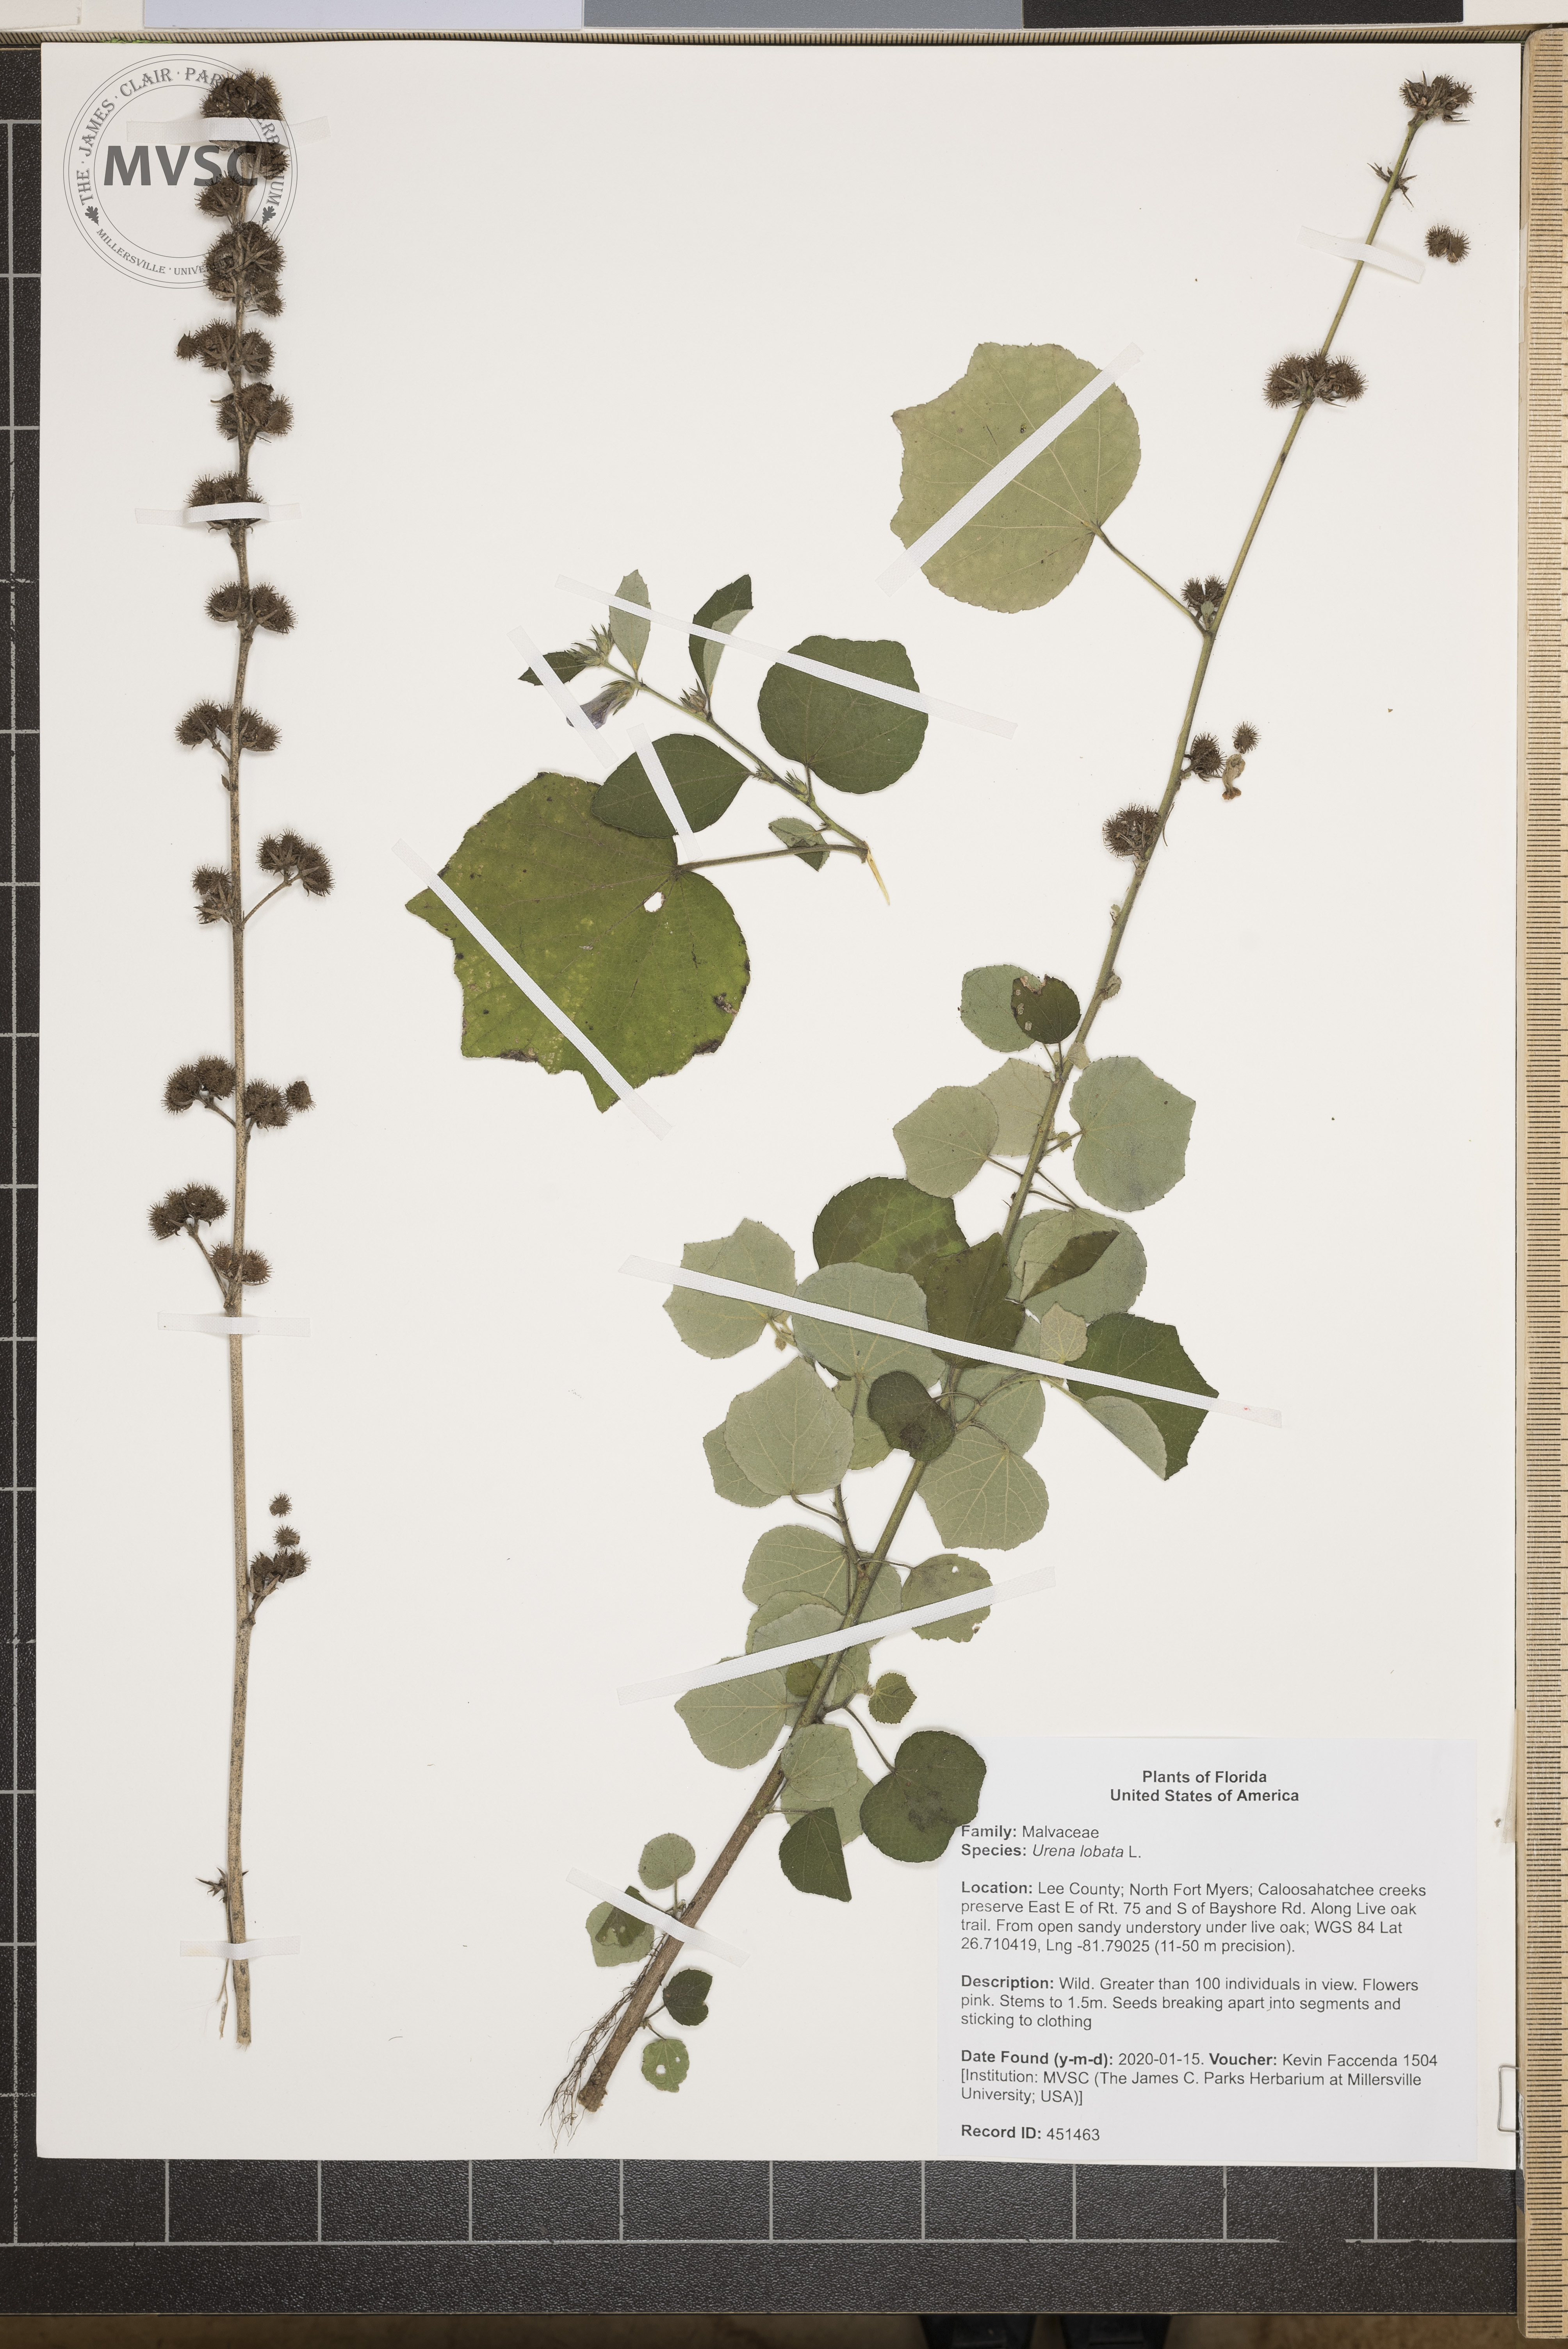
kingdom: Plantae
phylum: Tracheophyta
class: Magnoliopsida
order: Malvales
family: Malvaceae
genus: Urena
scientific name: Urena lobata
